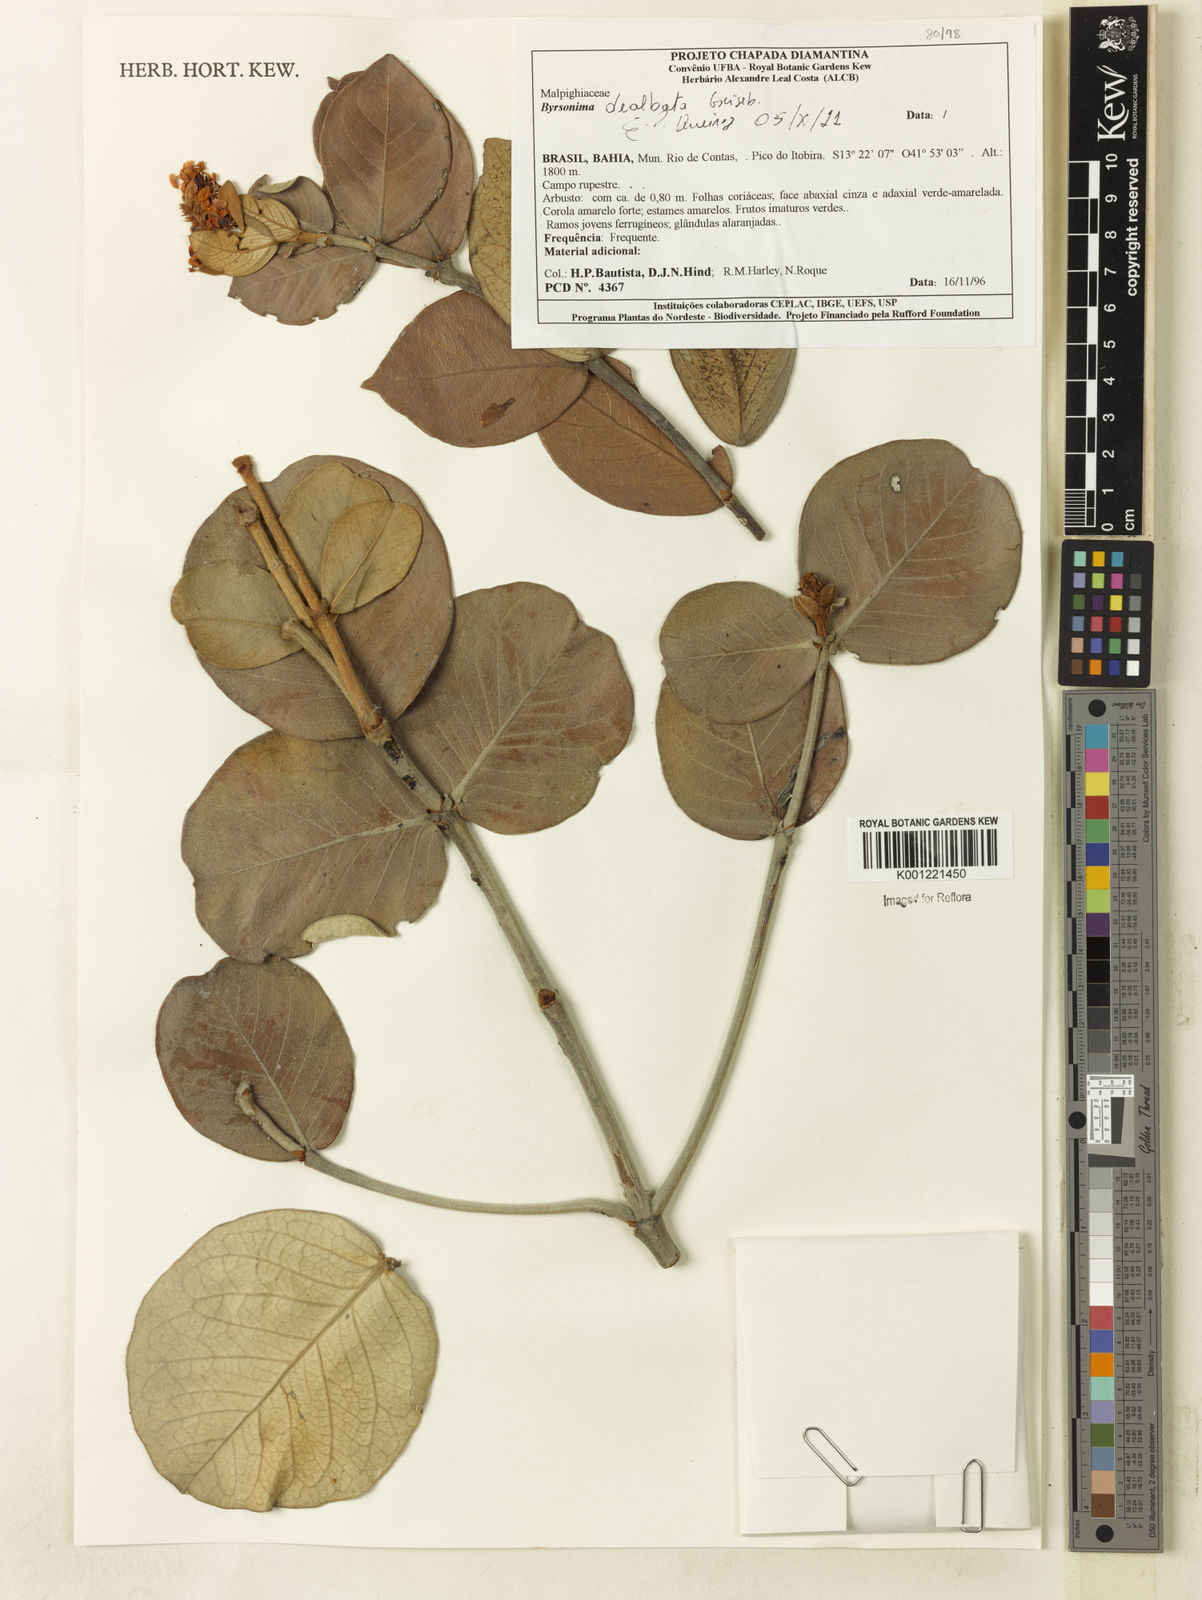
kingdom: Plantae
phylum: Tracheophyta
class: Magnoliopsida
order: Malpighiales
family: Malpighiaceae
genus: Byrsonima
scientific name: Byrsonima dealbata
